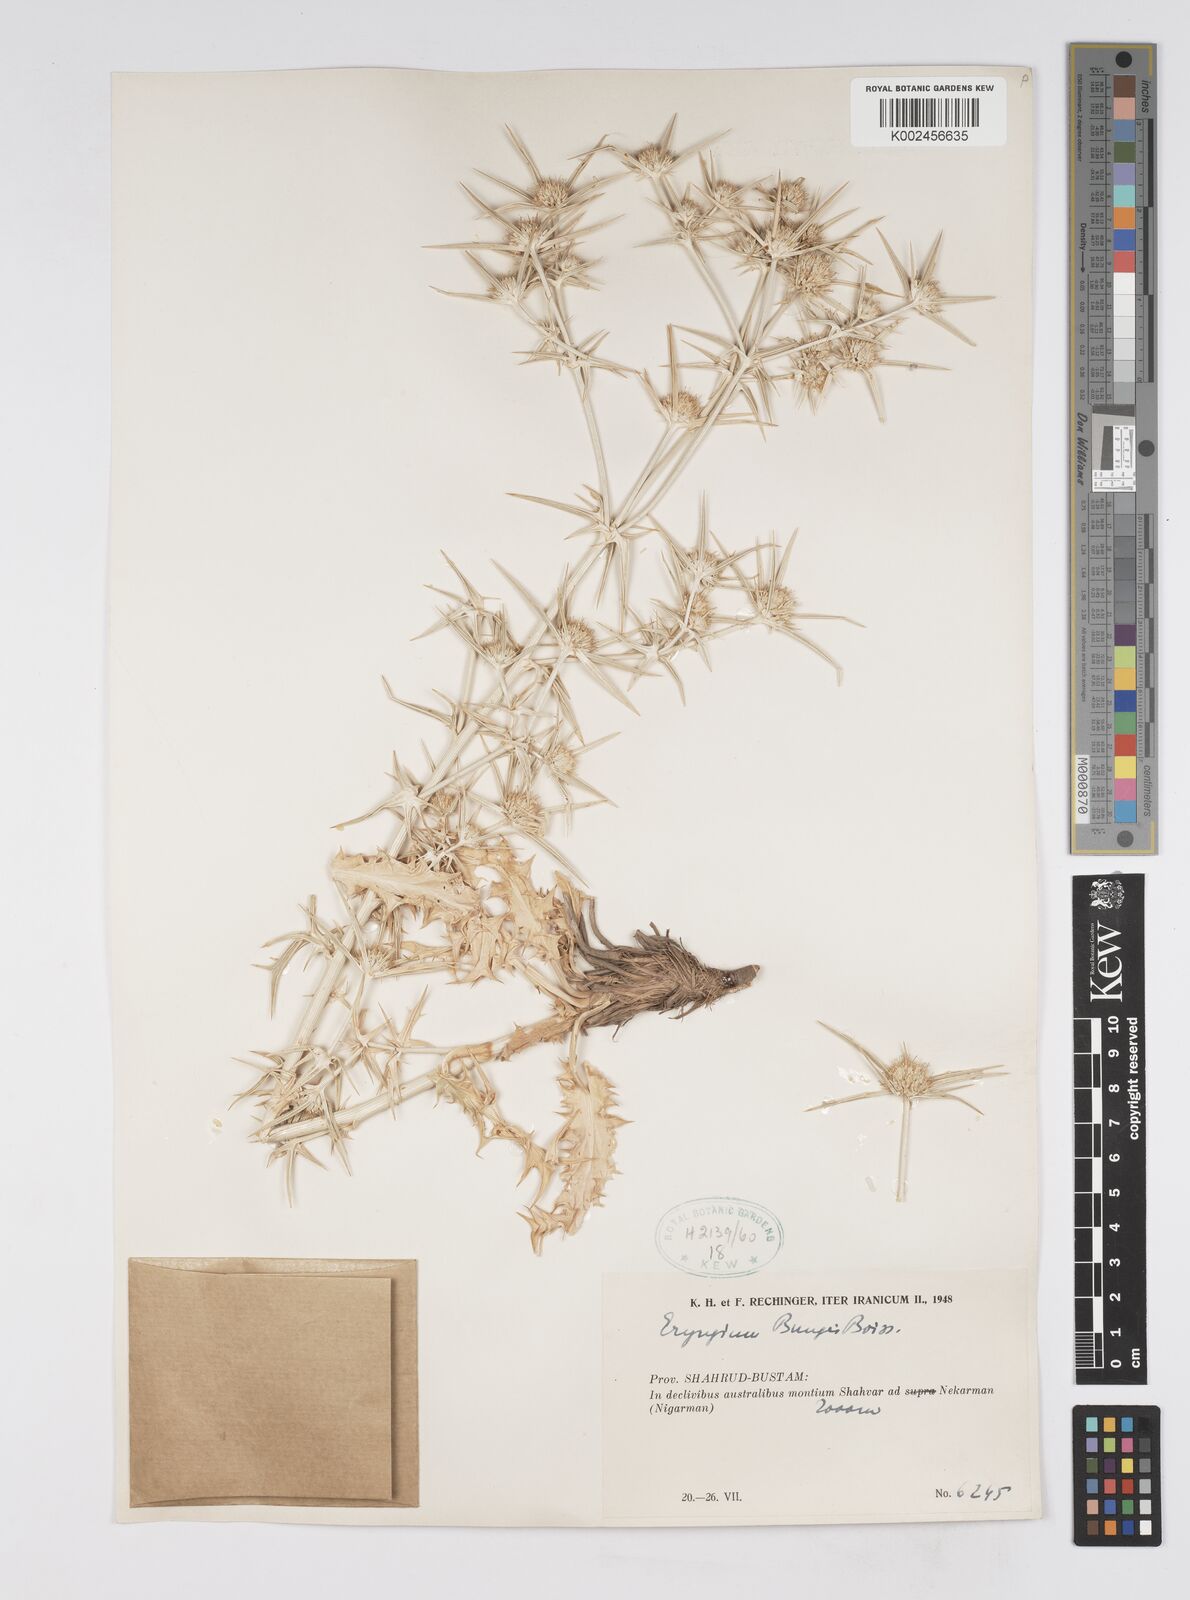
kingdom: Plantae
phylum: Tracheophyta
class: Magnoliopsida
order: Apiales
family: Apiaceae
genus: Eryngium
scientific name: Eryngium bungei
